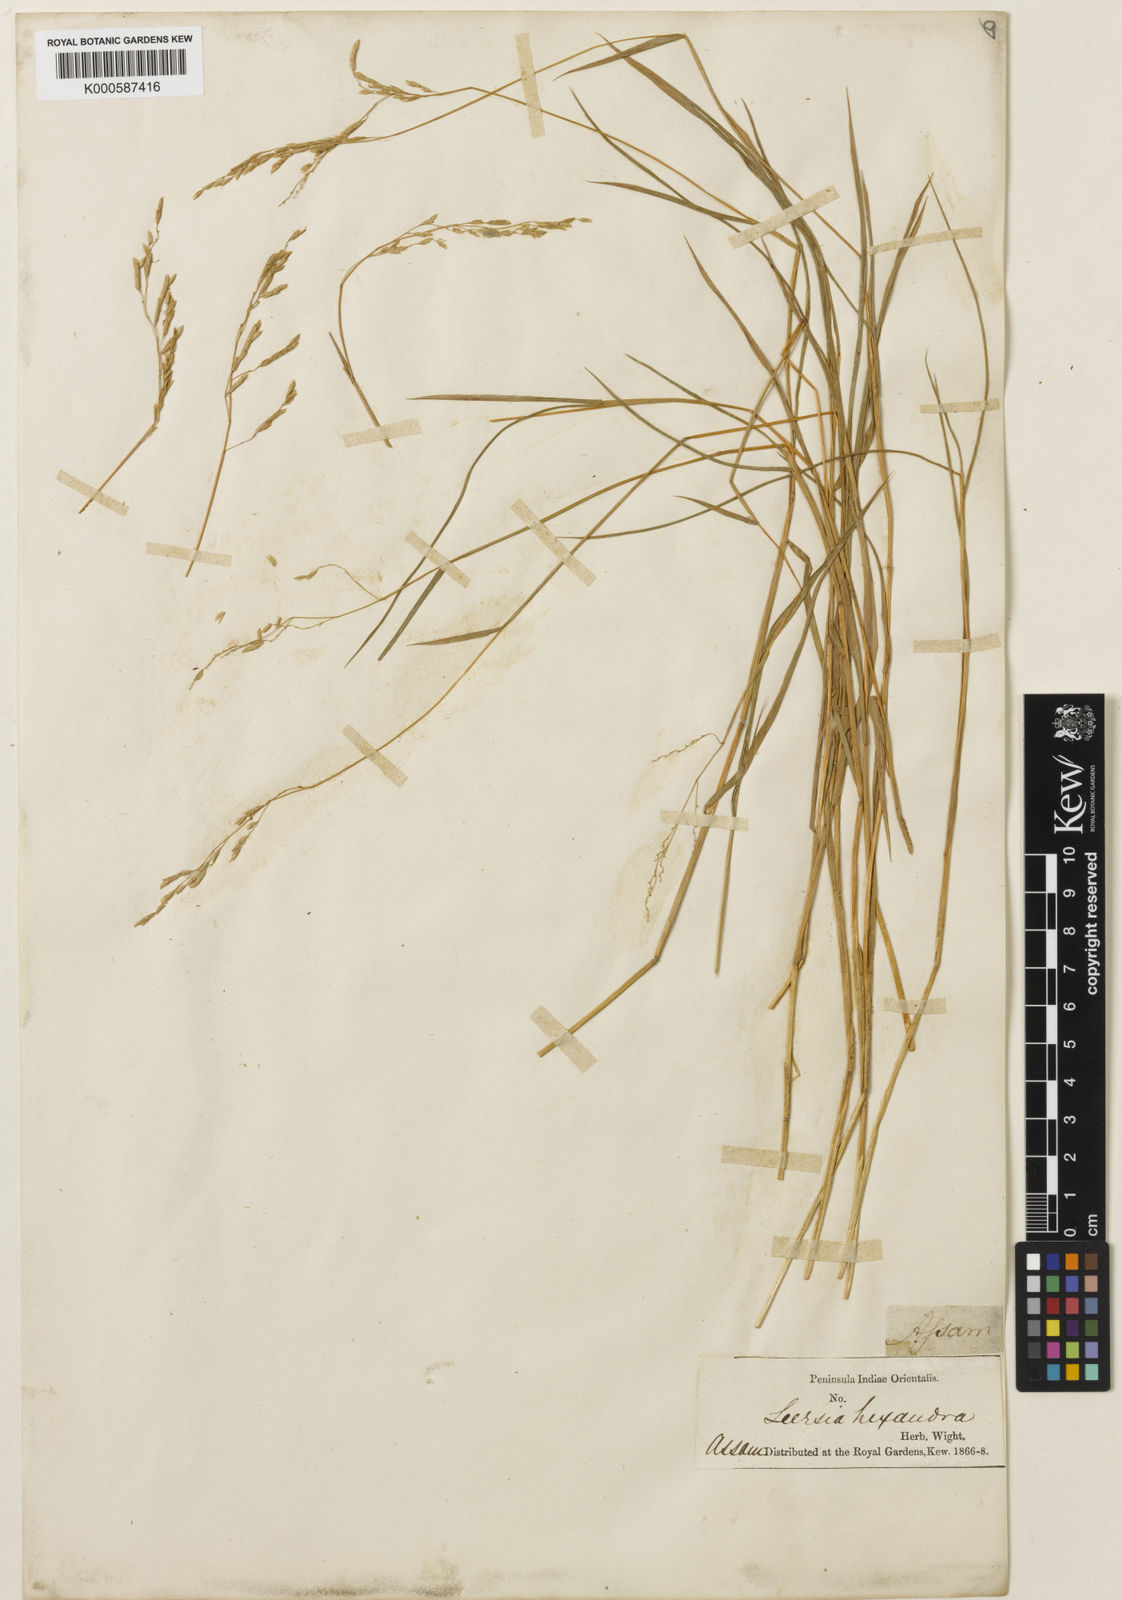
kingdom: Plantae
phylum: Tracheophyta
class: Liliopsida
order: Poales
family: Poaceae
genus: Leersia
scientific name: Leersia hexandra
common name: Southern cut grass
